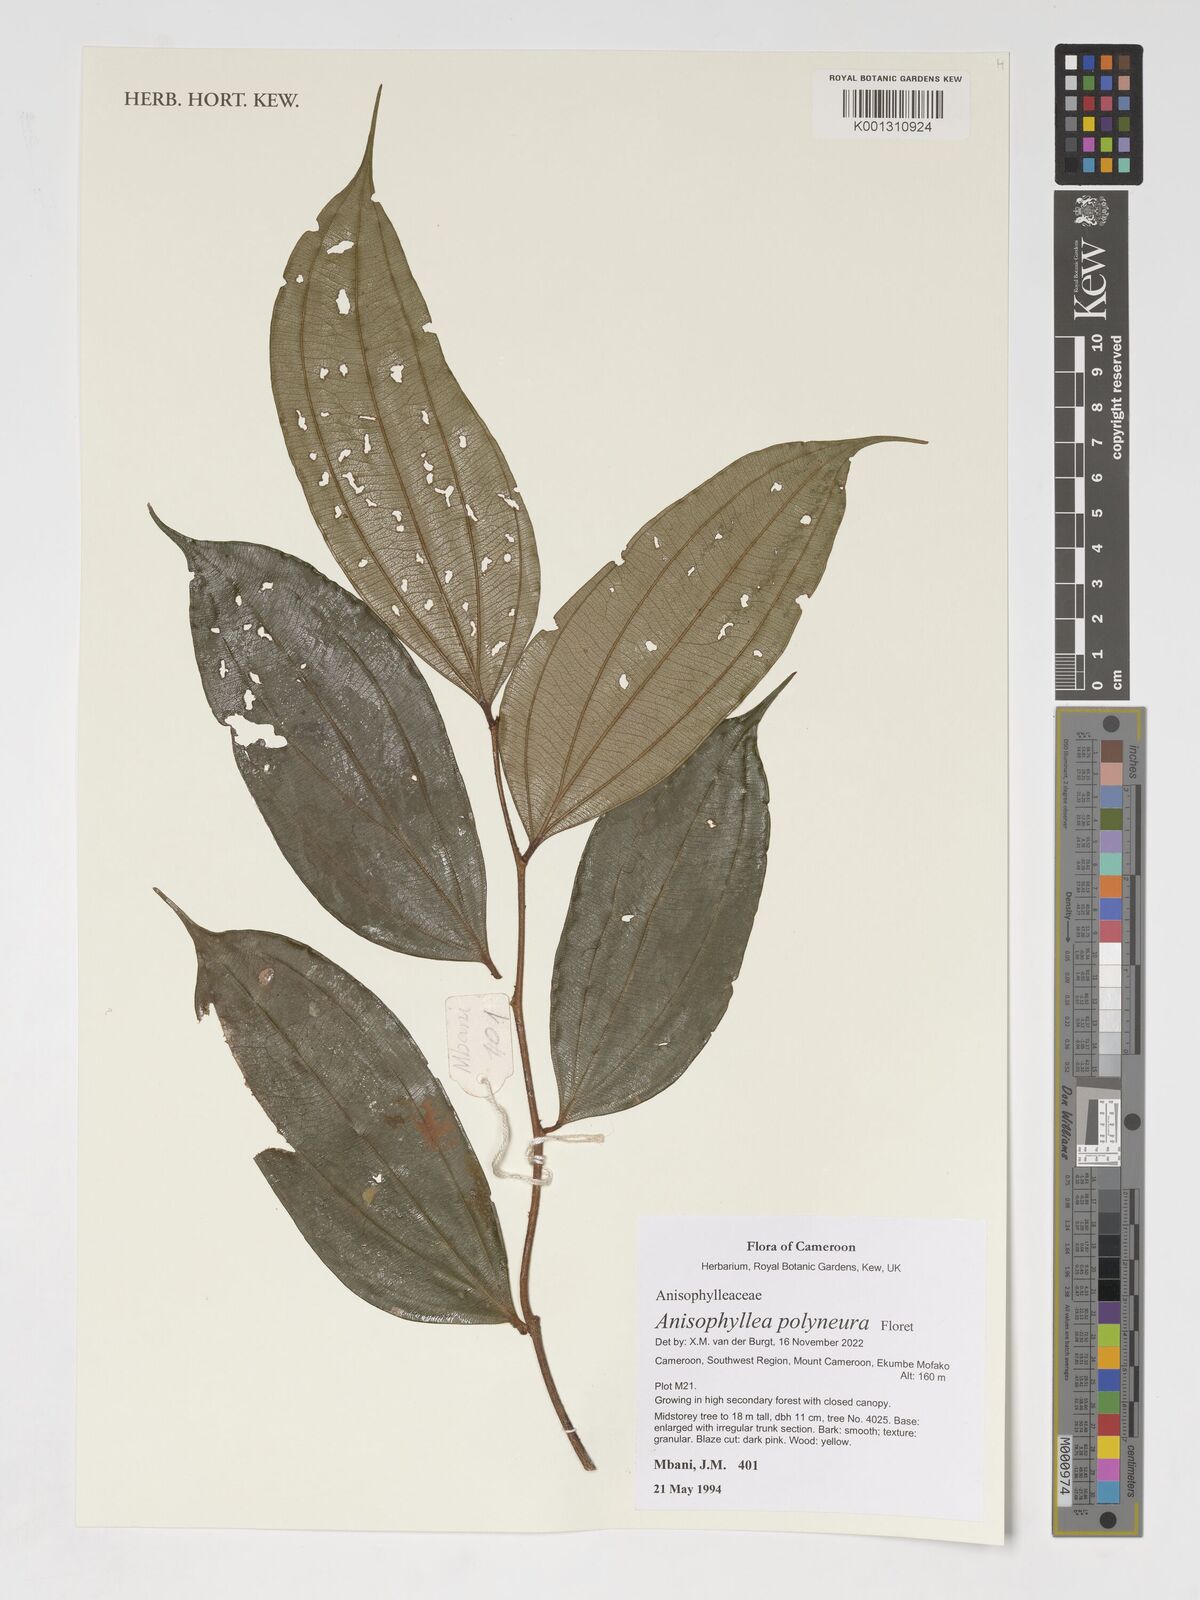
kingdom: Plantae
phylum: Tracheophyta
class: Magnoliopsida
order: Cucurbitales
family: Anisophylleaceae
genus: Anisophyllea
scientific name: Anisophyllea polyneura
